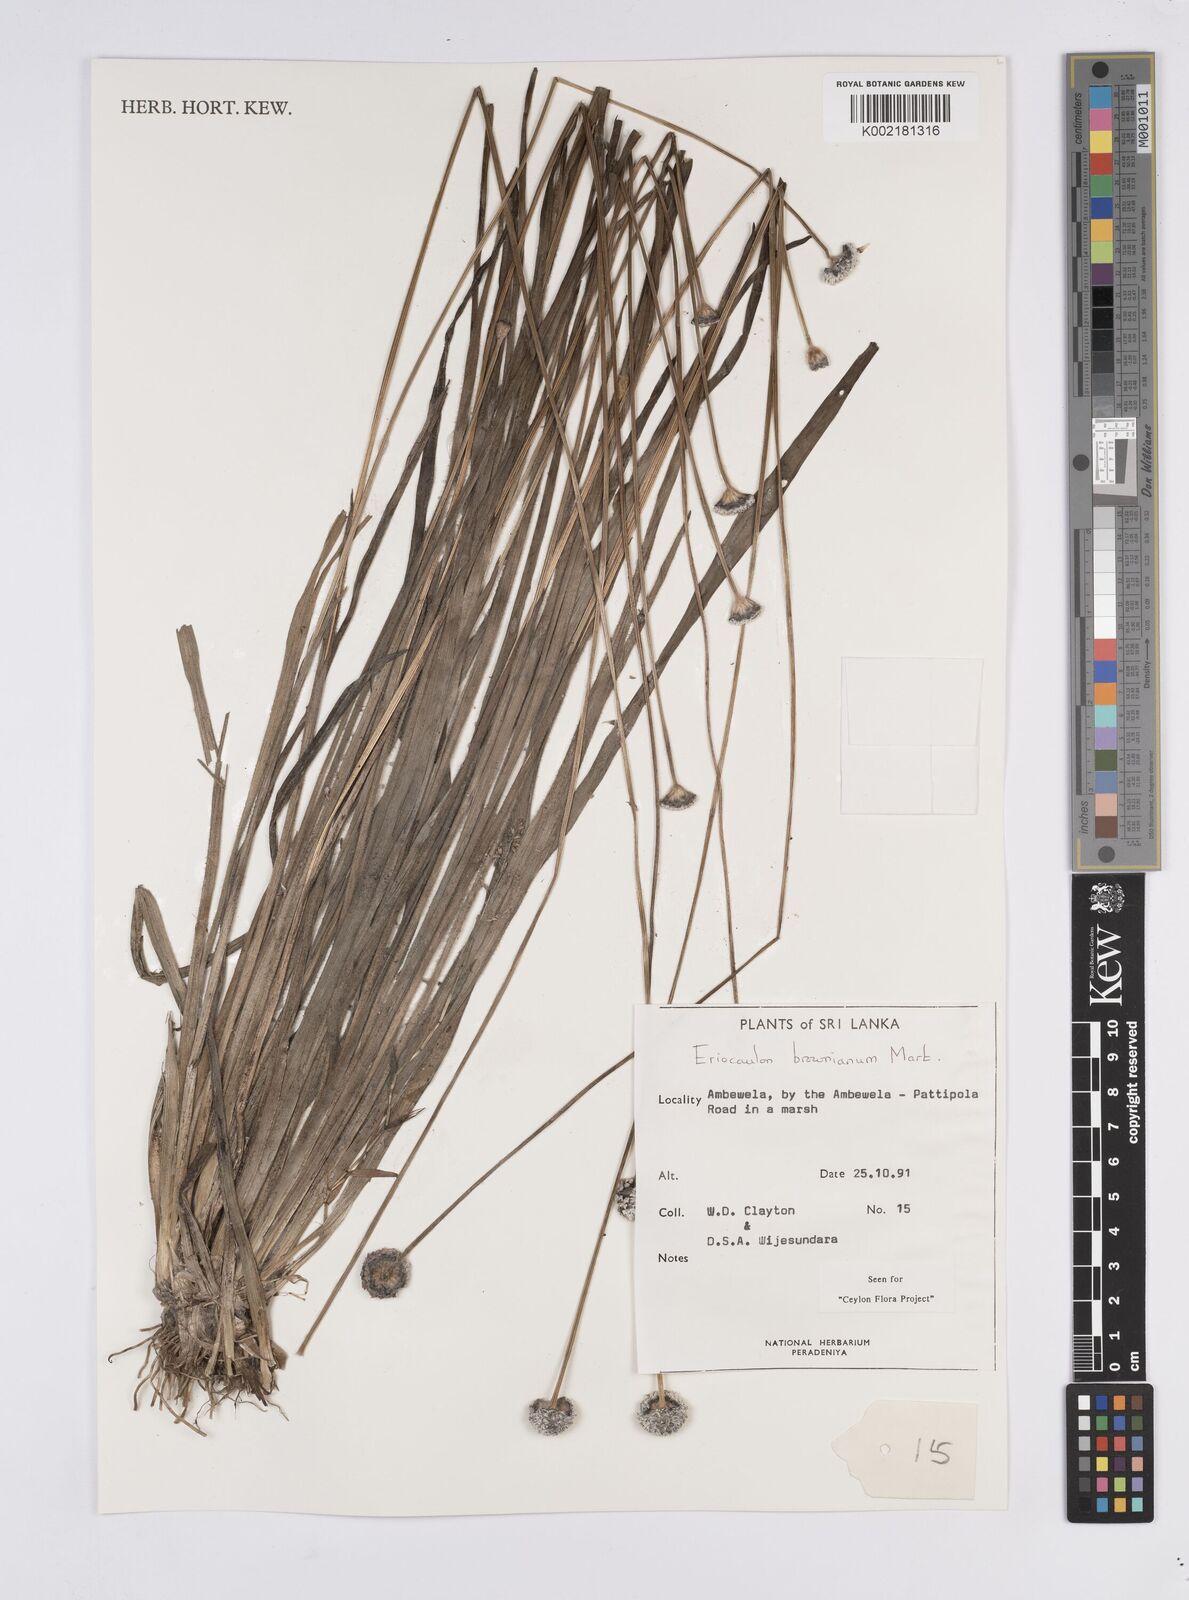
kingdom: Plantae
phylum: Tracheophyta
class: Liliopsida
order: Poales
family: Eriocaulaceae
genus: Eriocaulon
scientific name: Eriocaulon brownianum
